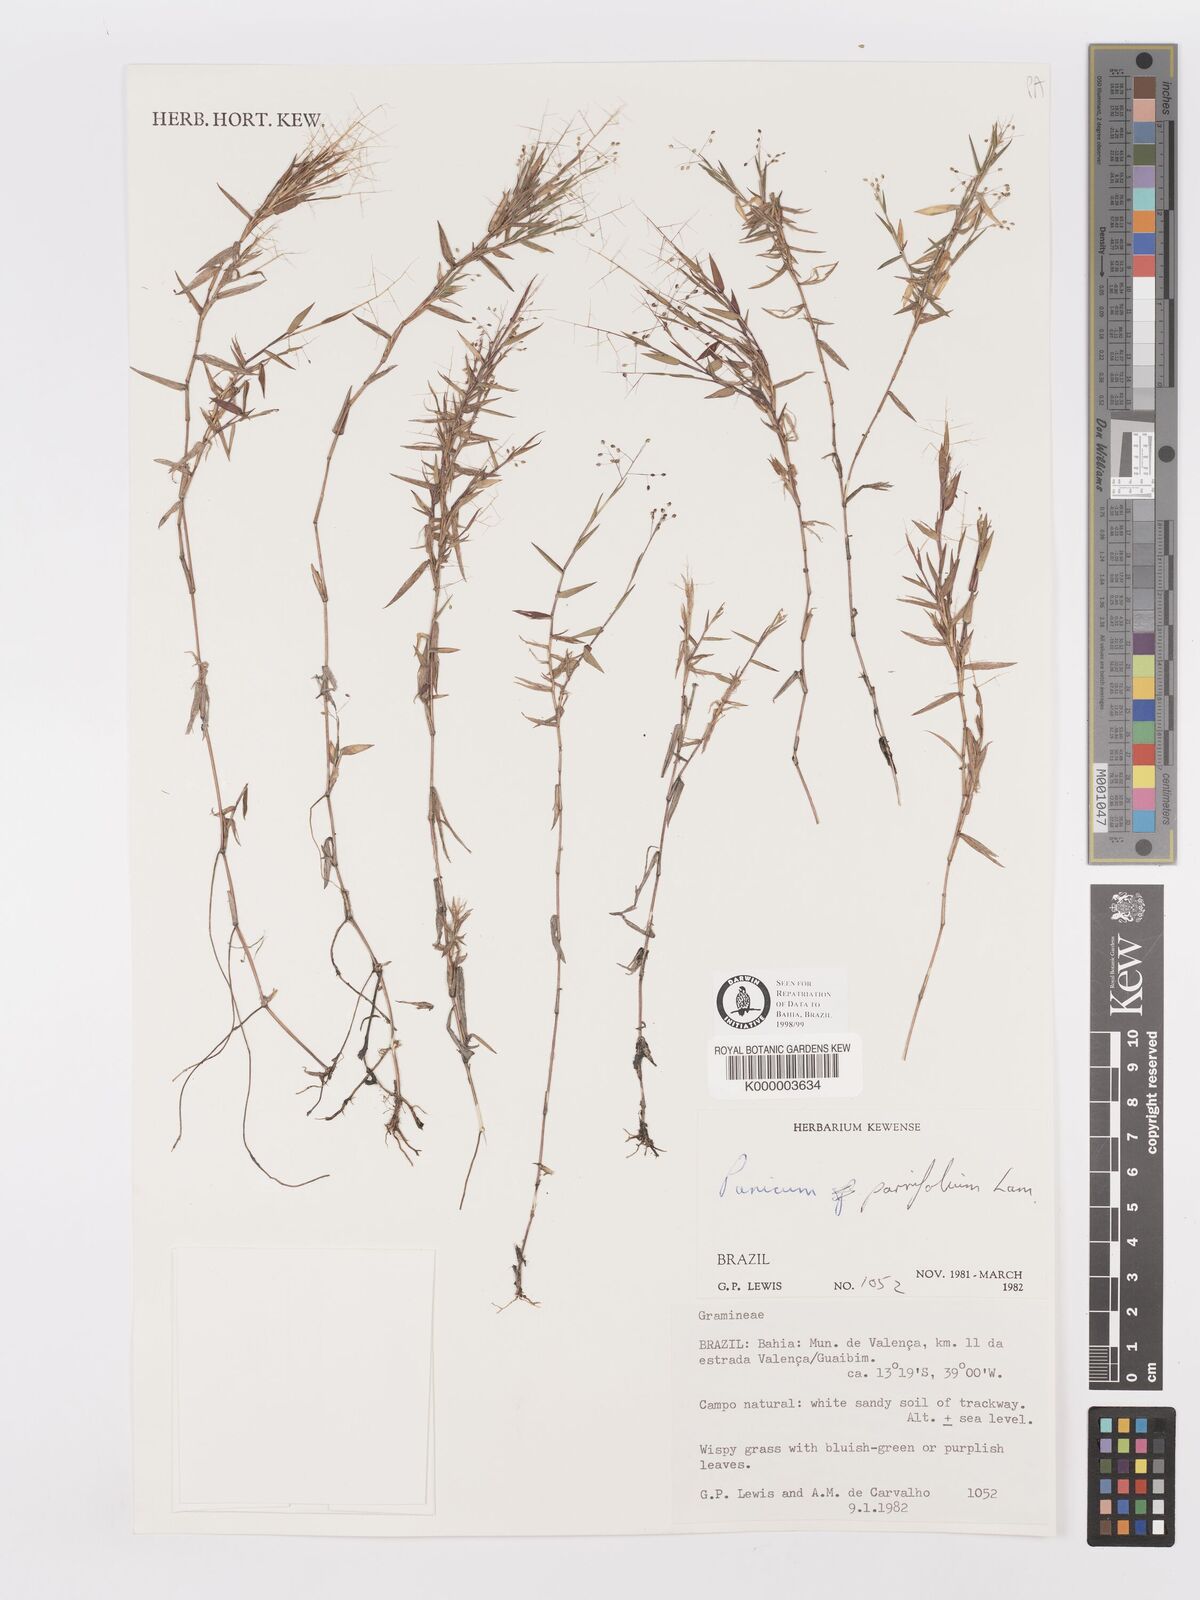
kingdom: Plantae
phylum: Tracheophyta
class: Liliopsida
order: Poales
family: Poaceae
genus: Trichanthecium
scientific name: Trichanthecium parvifolium
